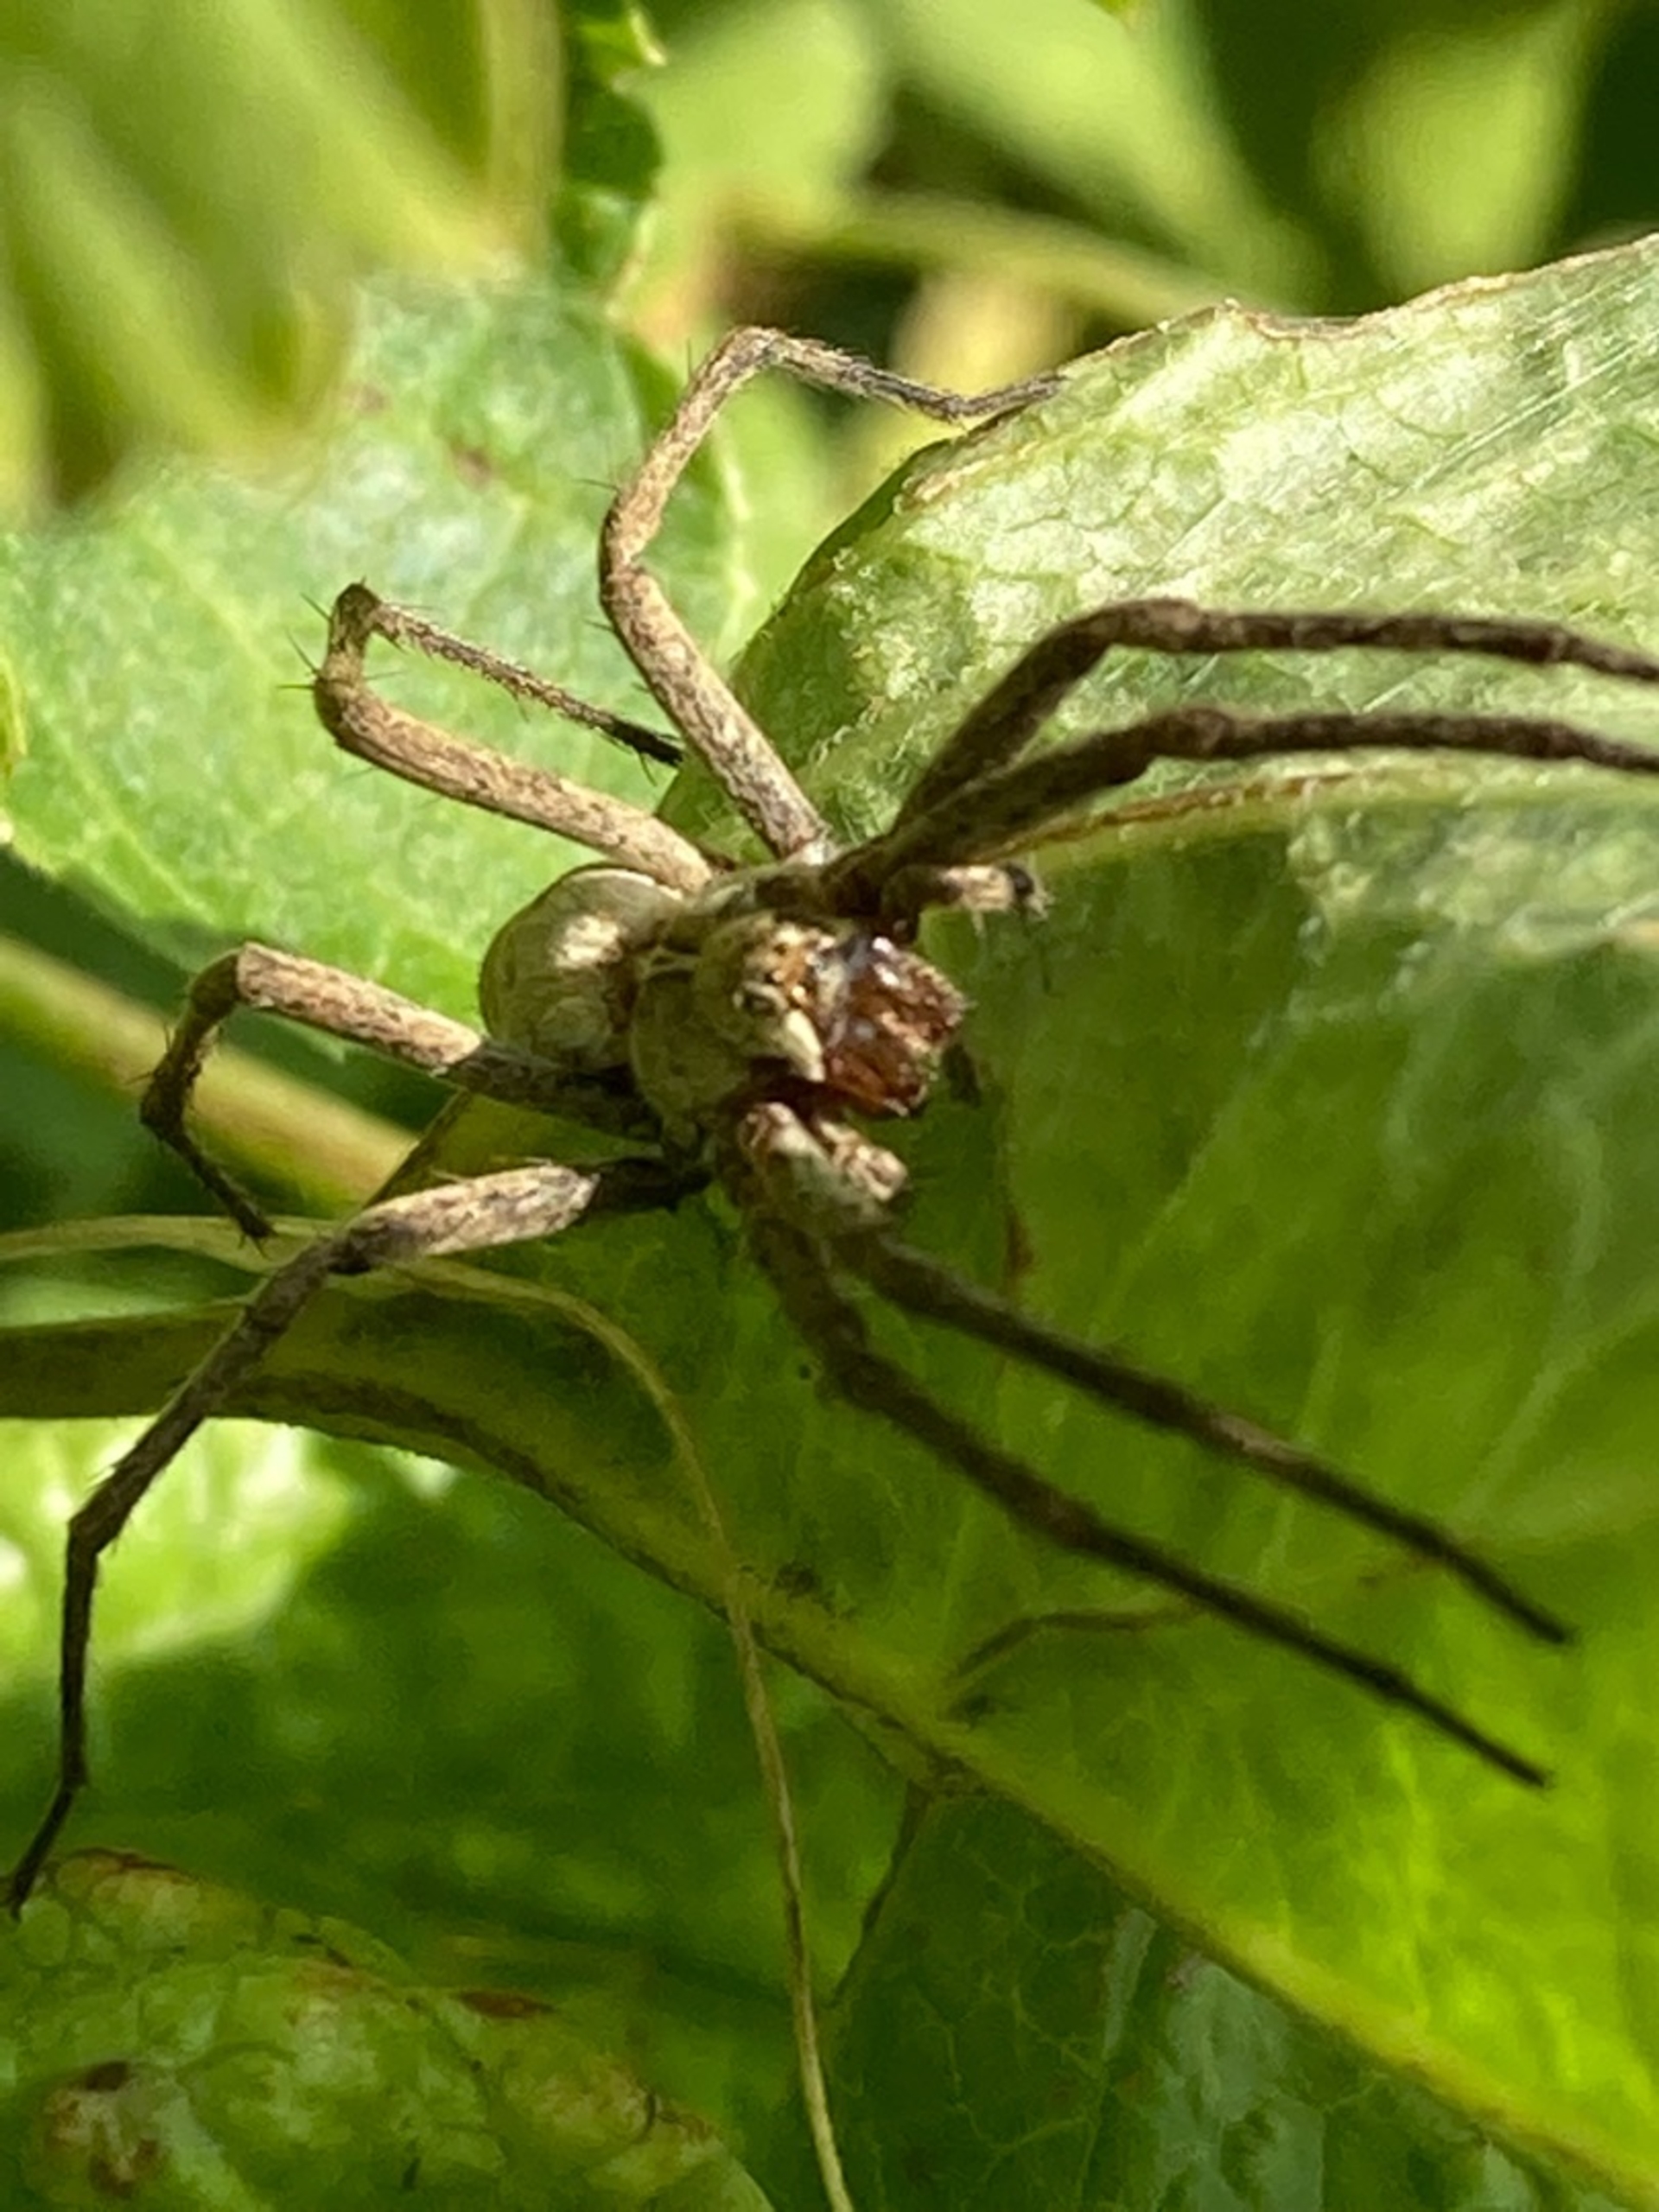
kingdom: Animalia
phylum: Arthropoda
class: Arachnida
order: Araneae
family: Pisauridae
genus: Pisaura
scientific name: Pisaura mirabilis
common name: Almindelig rovedderkop
